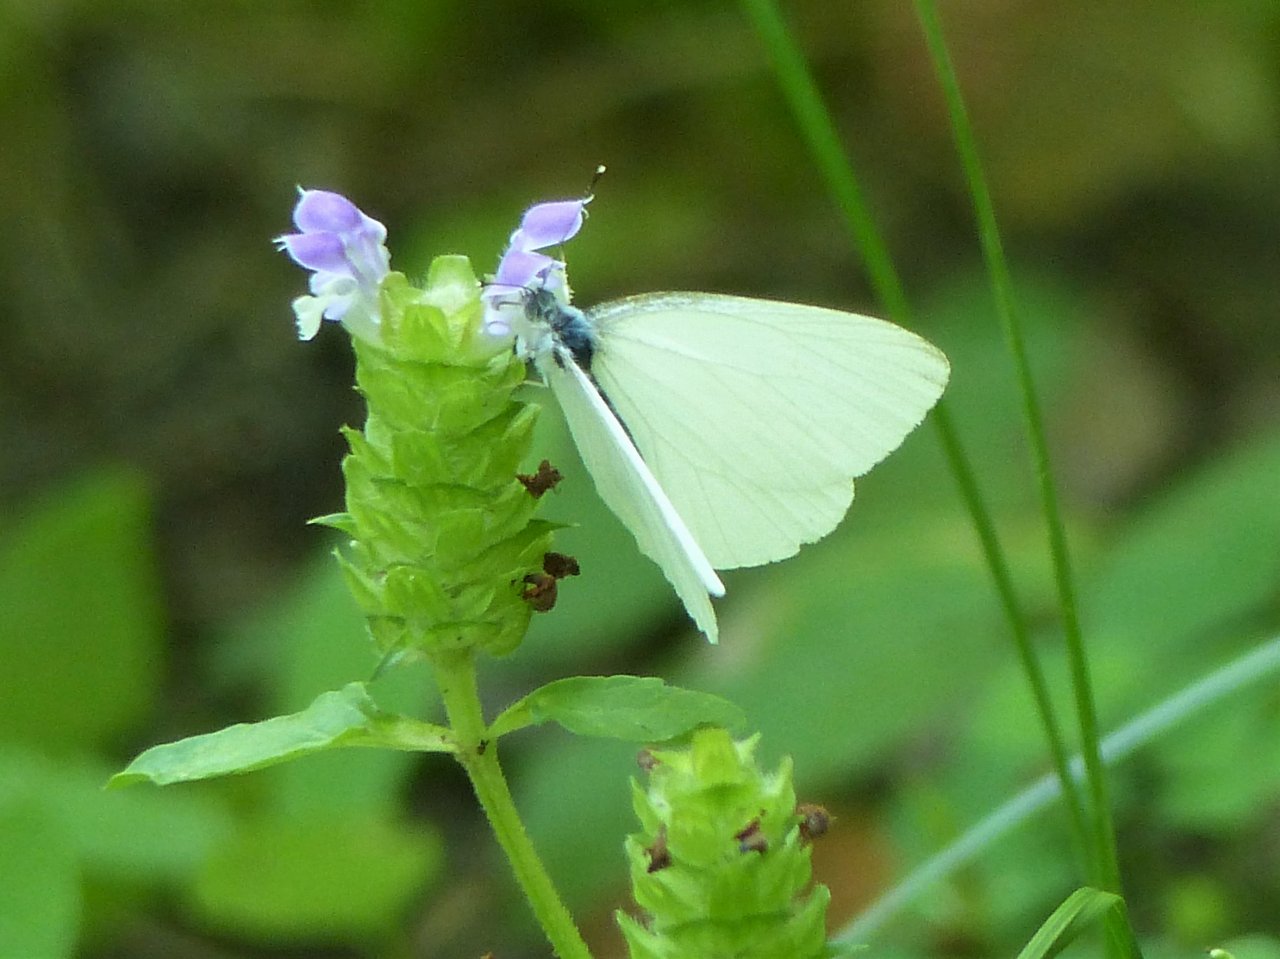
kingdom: Animalia
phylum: Arthropoda
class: Insecta
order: Lepidoptera
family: Pieridae
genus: Pieris
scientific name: Pieris oleracea
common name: Mustard White
